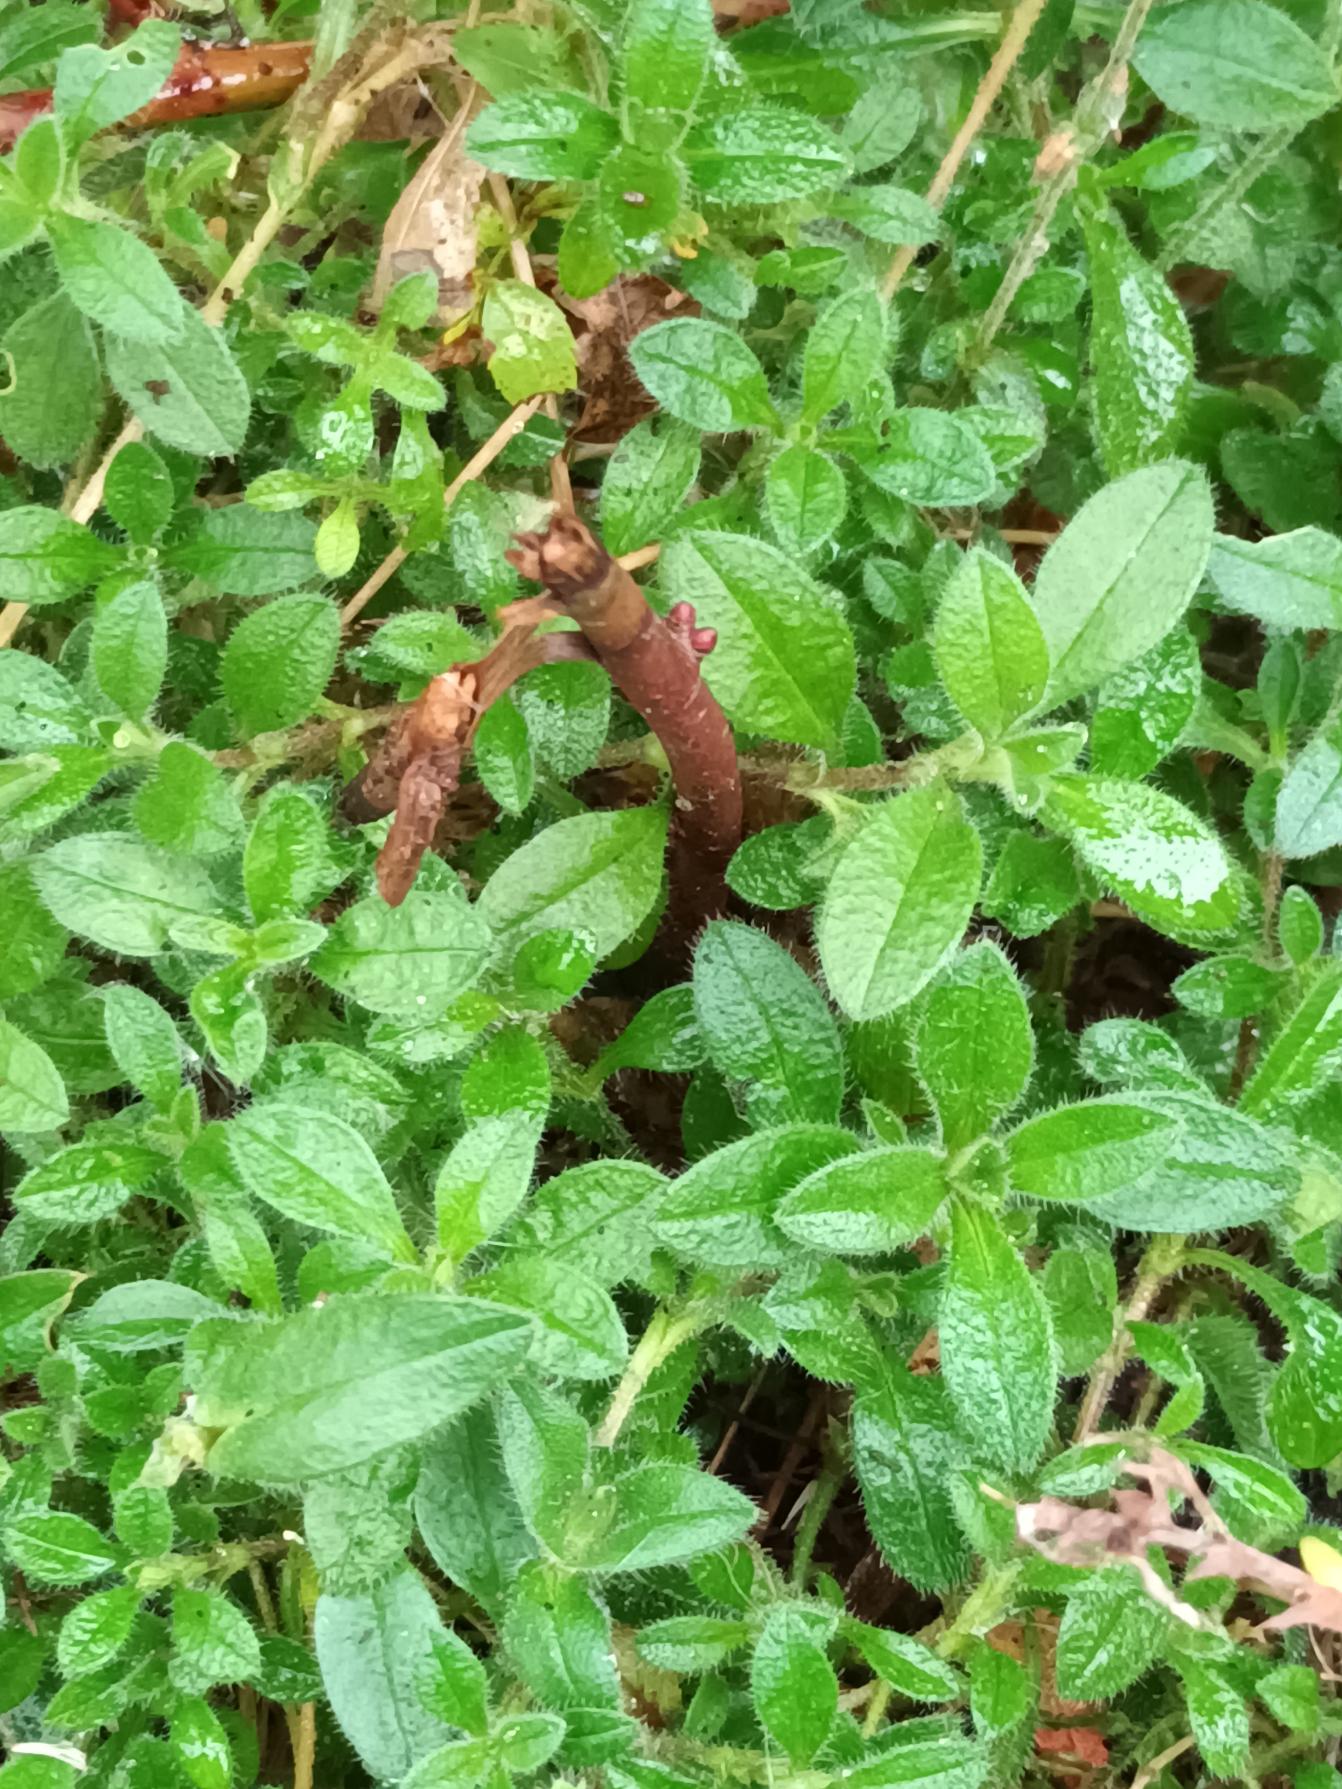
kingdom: Plantae
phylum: Tracheophyta
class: Magnoliopsida
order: Caryophyllales
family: Caryophyllaceae
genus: Cerastium
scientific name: Cerastium fontanum
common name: Almindelig hønsetarm
